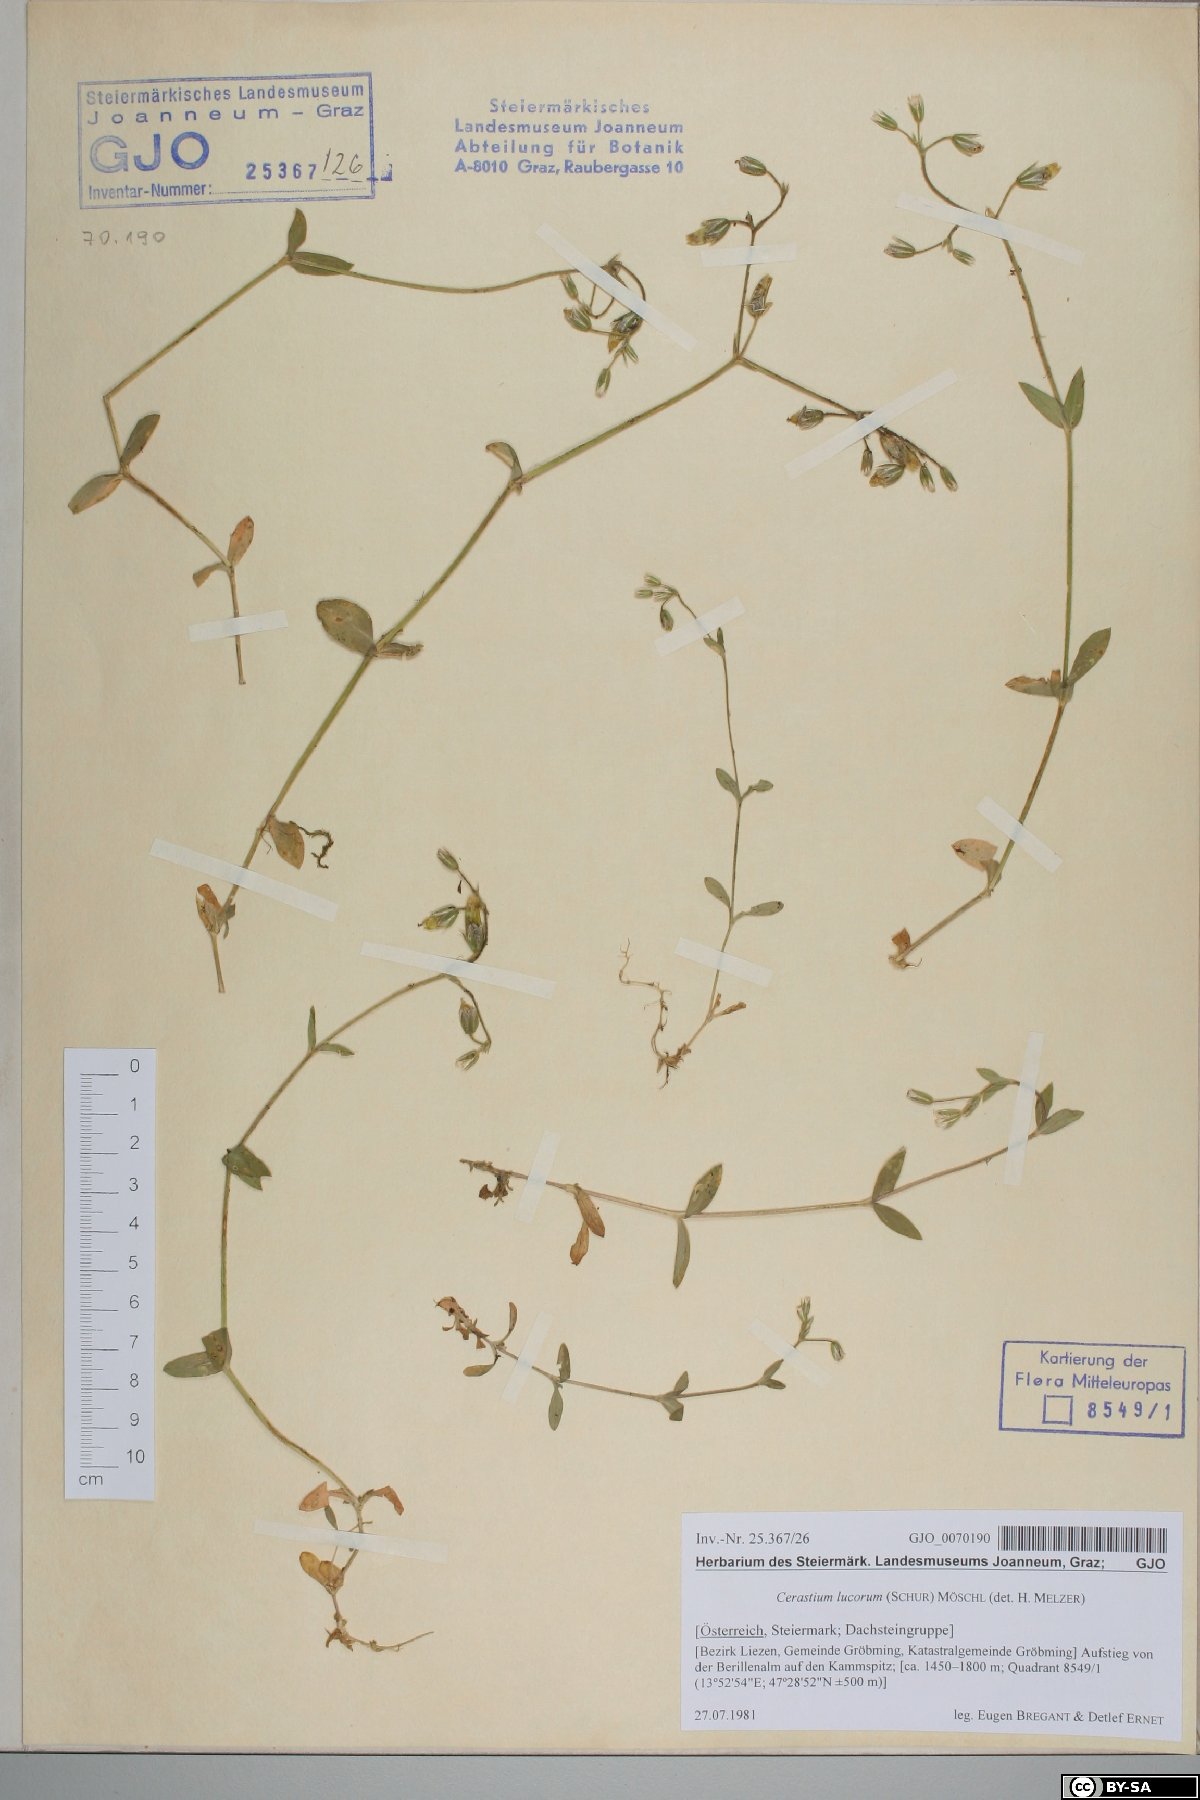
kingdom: Plantae
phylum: Tracheophyta
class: Magnoliopsida
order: Caryophyllales
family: Caryophyllaceae
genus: Cerastium
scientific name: Cerastium lucorum
